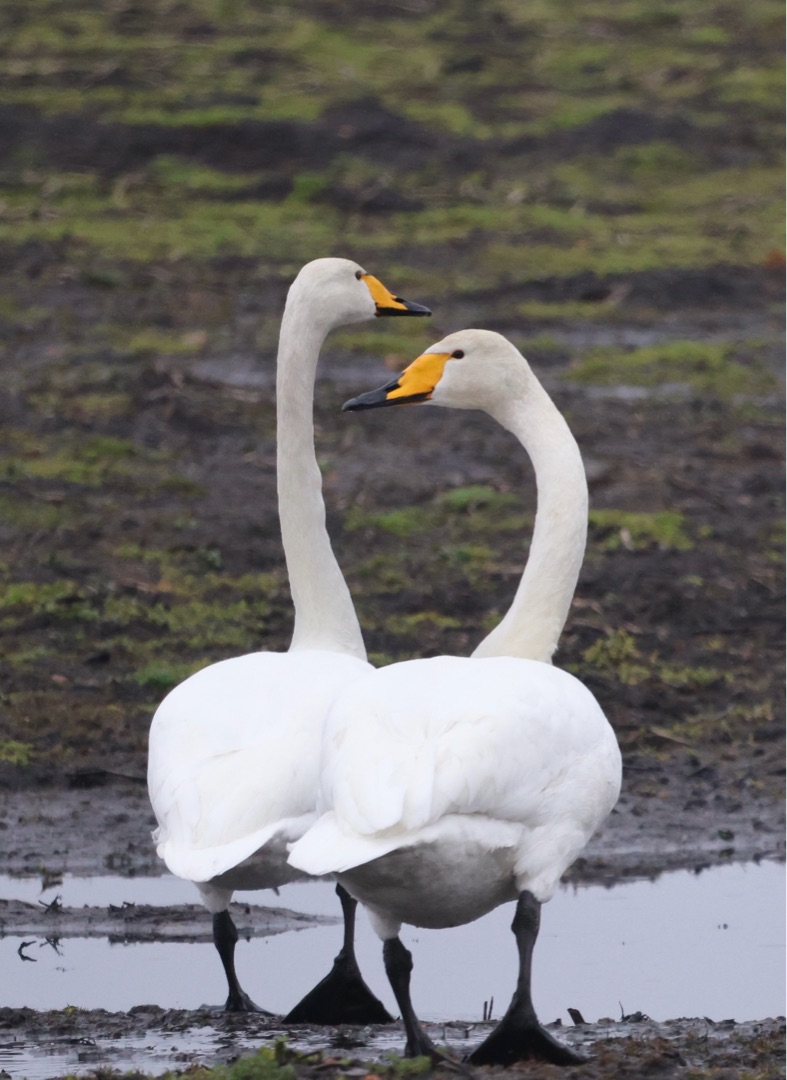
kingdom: Animalia
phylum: Chordata
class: Aves
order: Anseriformes
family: Anatidae
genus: Cygnus
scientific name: Cygnus cygnus
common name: Sangsvane
